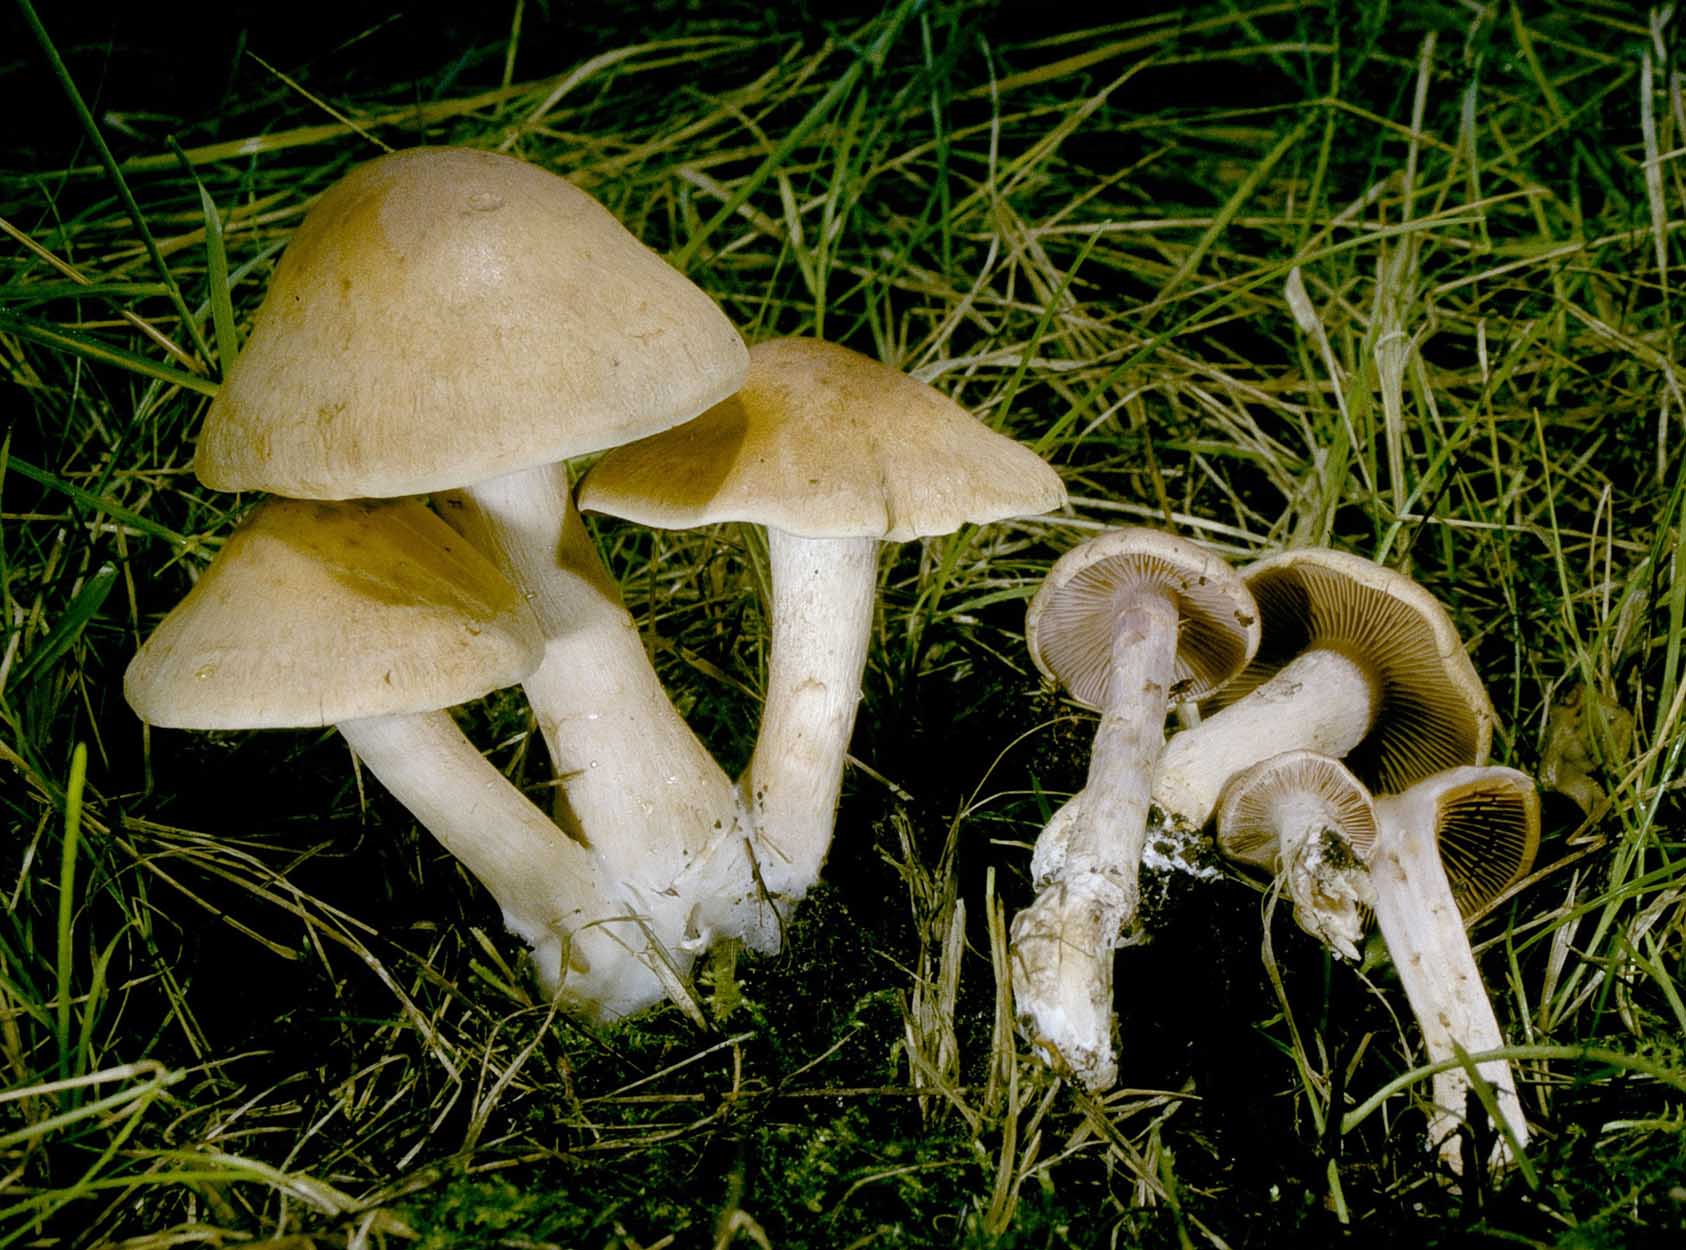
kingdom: Fungi
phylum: Basidiomycota
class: Agaricomycetes
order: Agaricales
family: Cortinariaceae
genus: Cortinarius
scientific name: Cortinarius
